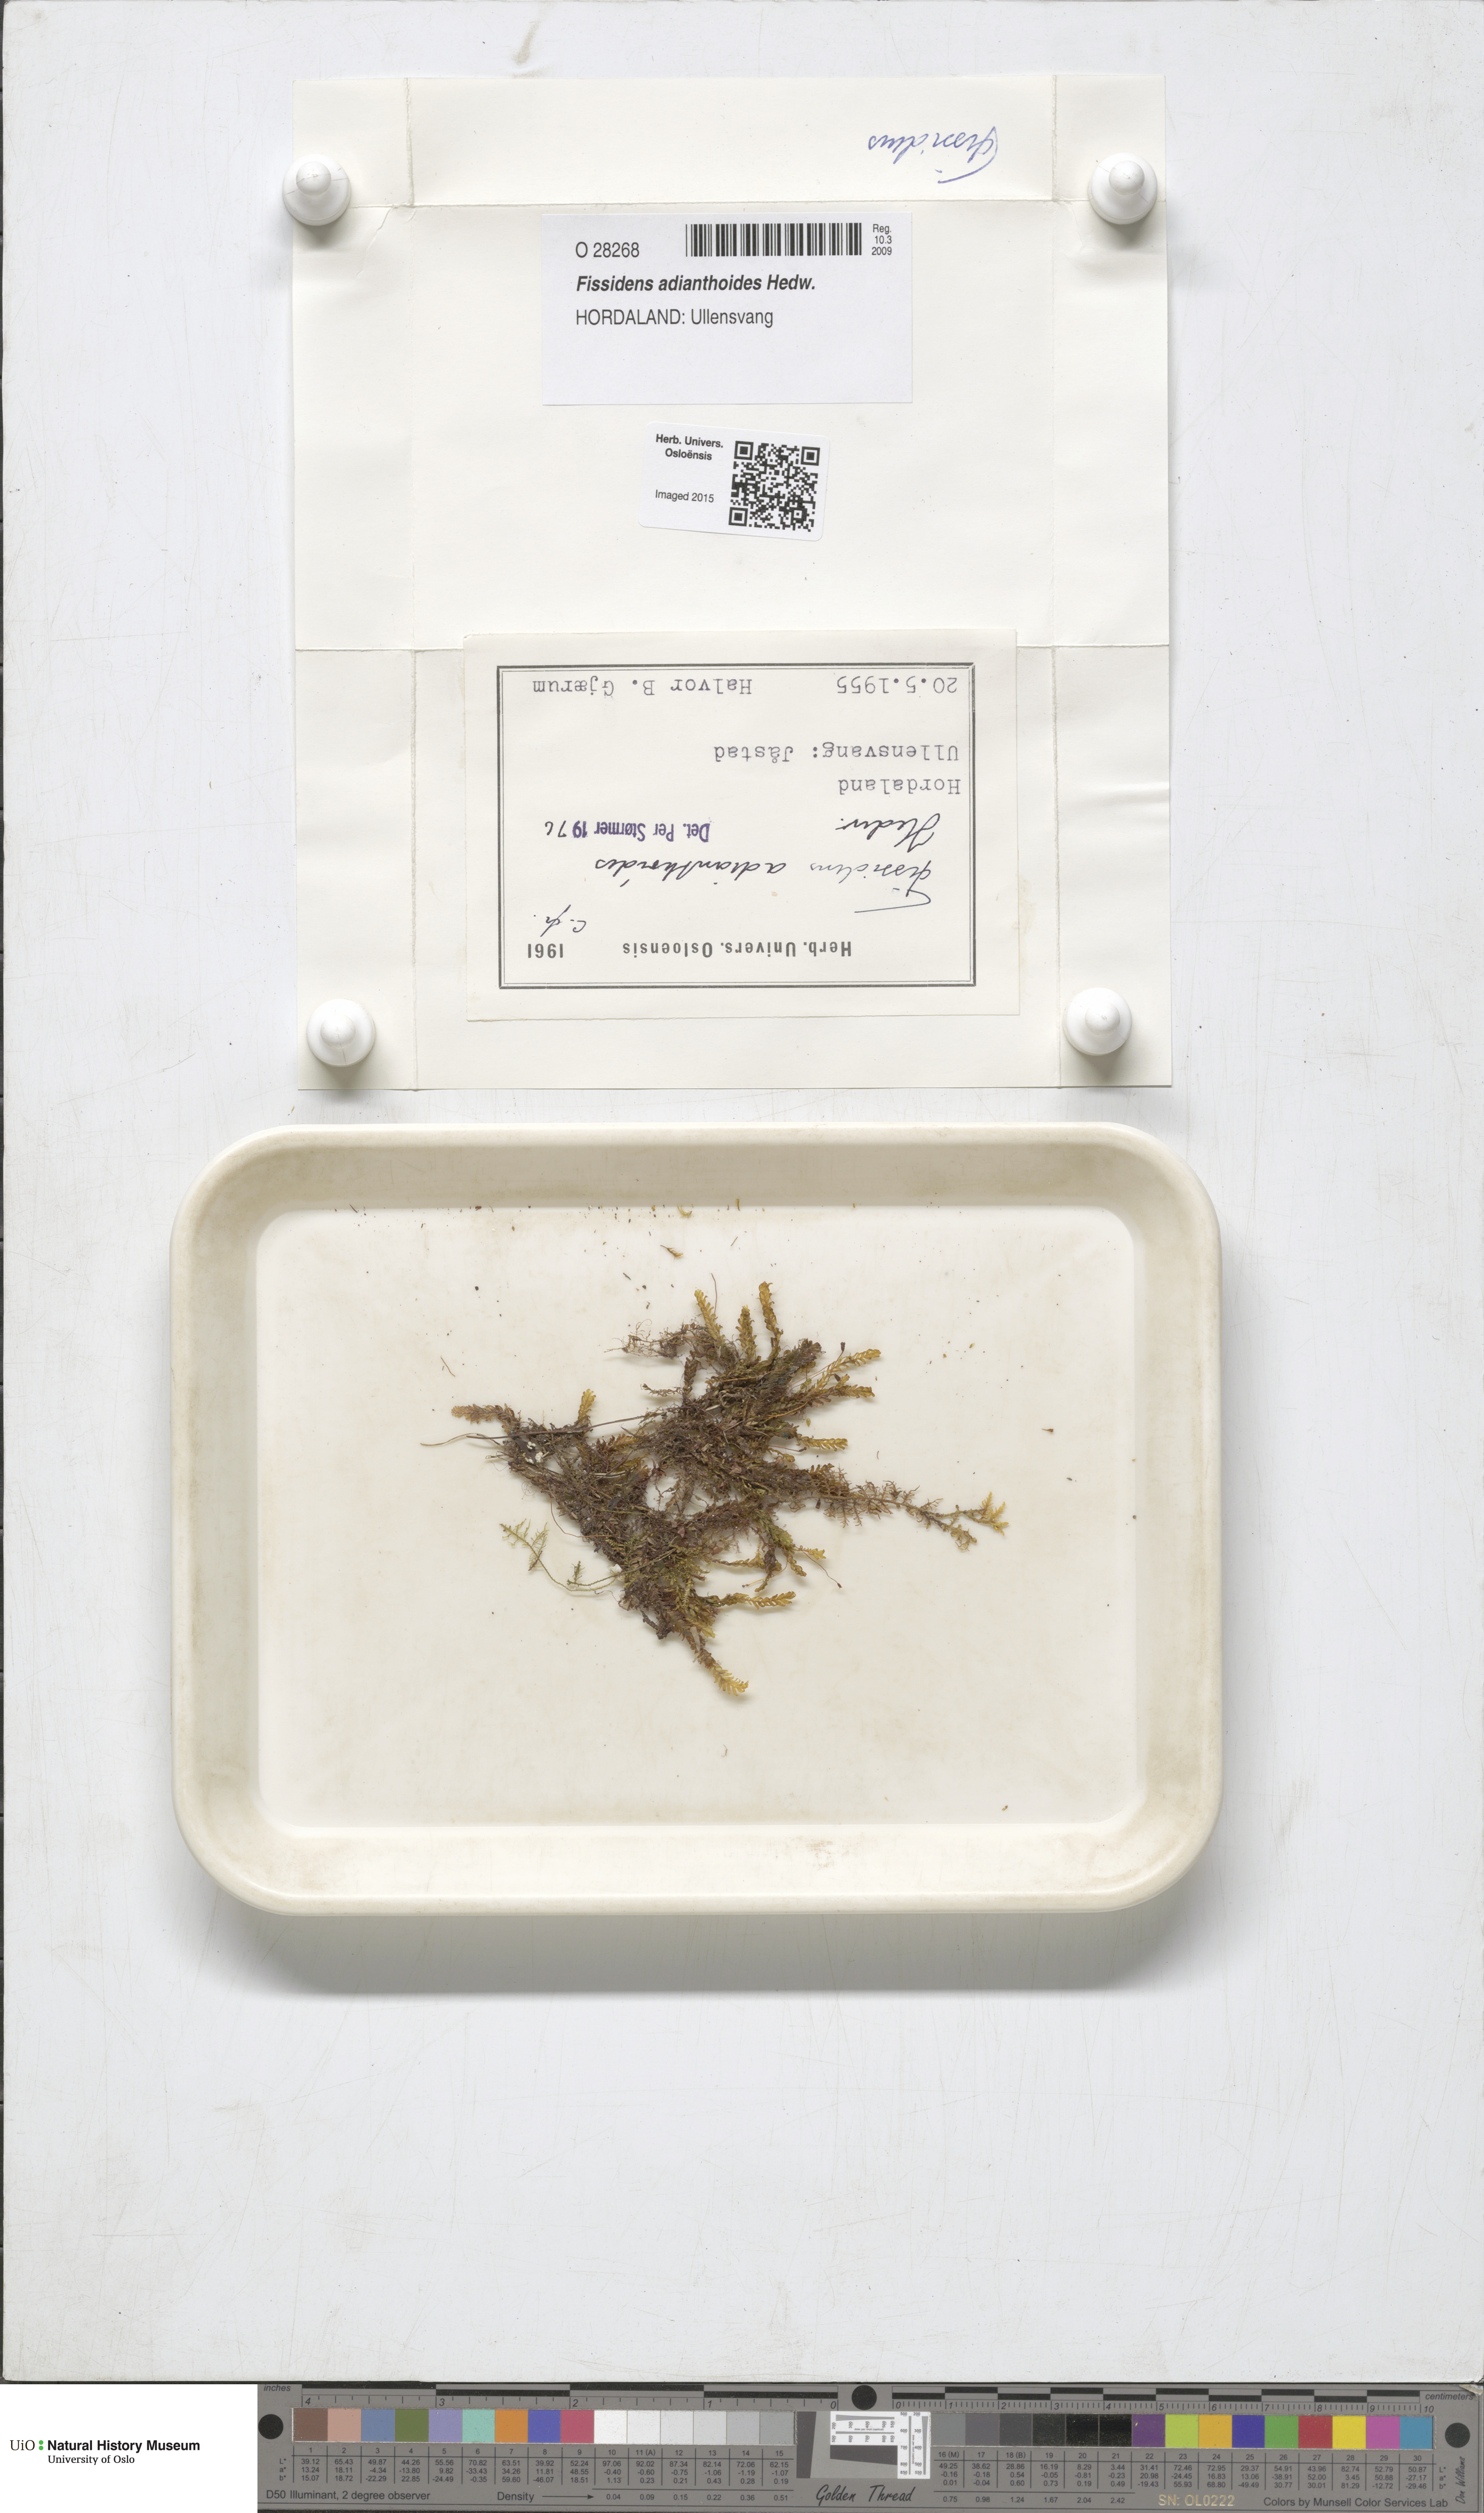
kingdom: Plantae
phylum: Bryophyta
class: Bryopsida
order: Dicranales
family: Fissidentaceae
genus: Fissidens
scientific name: Fissidens adianthoides
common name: Maidenhair pocket moss
